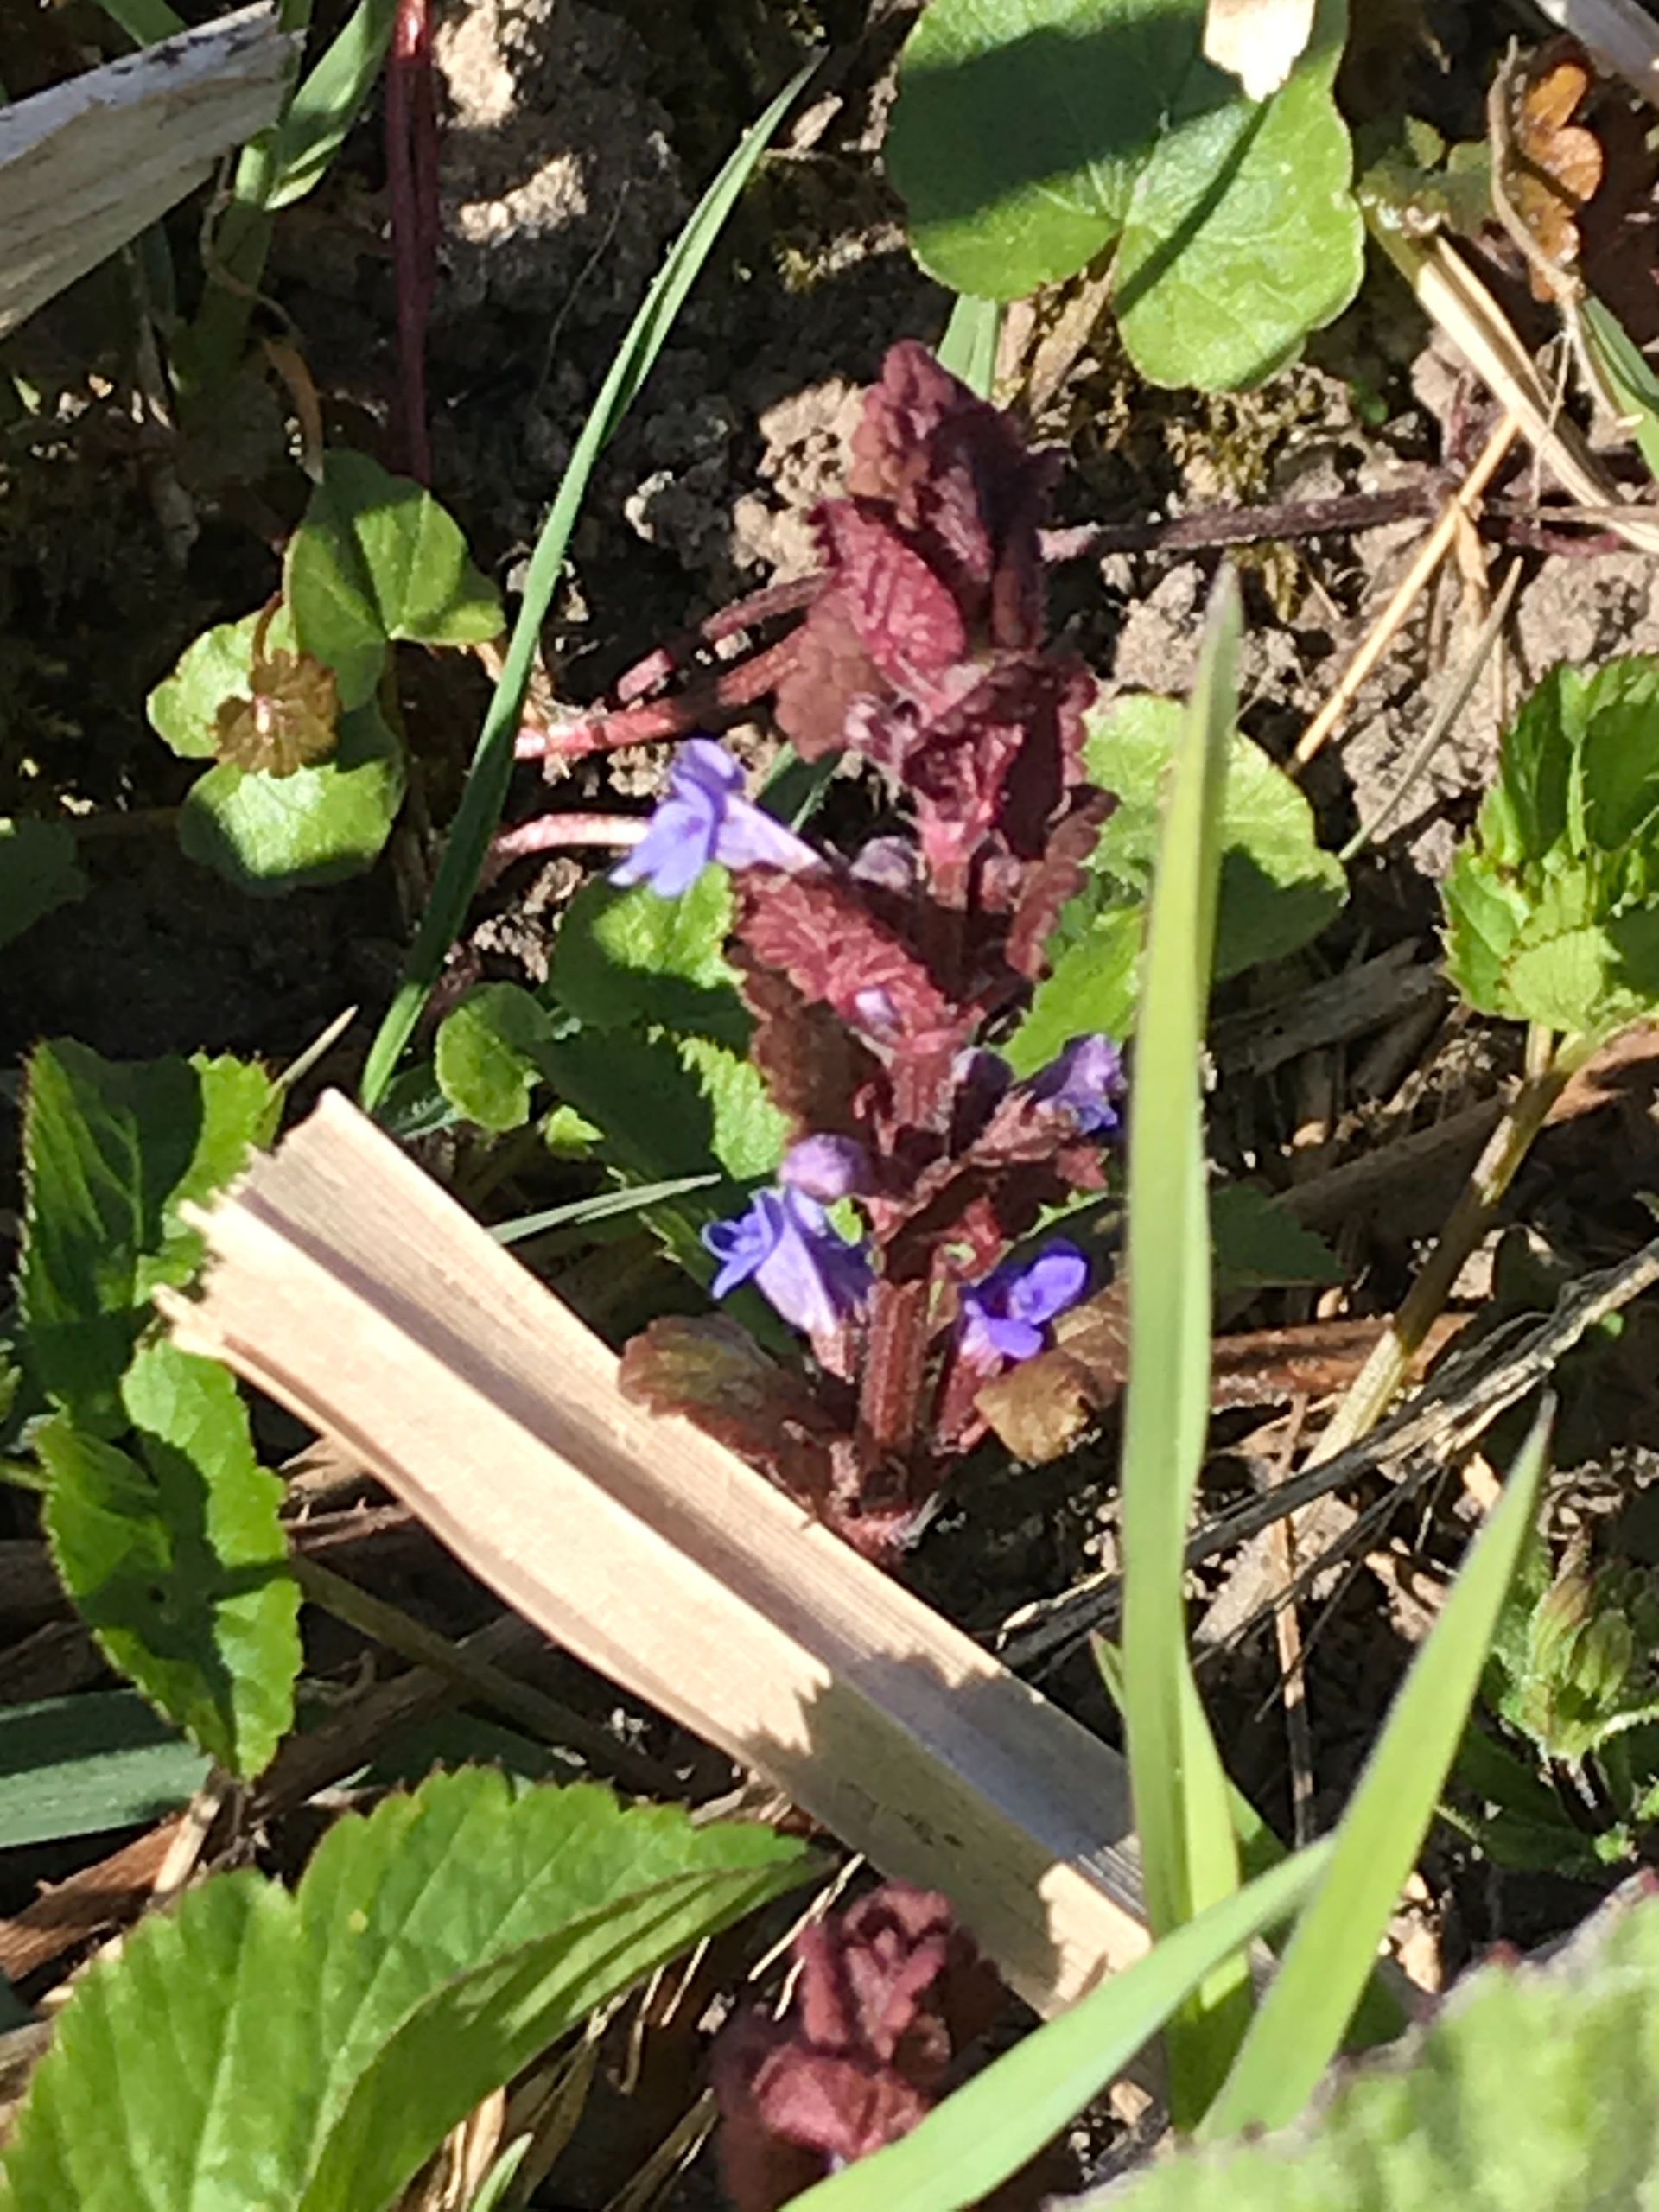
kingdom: Plantae
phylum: Tracheophyta
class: Magnoliopsida
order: Lamiales
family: Lamiaceae
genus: Glechoma
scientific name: Glechoma hederacea
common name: Korsknap
